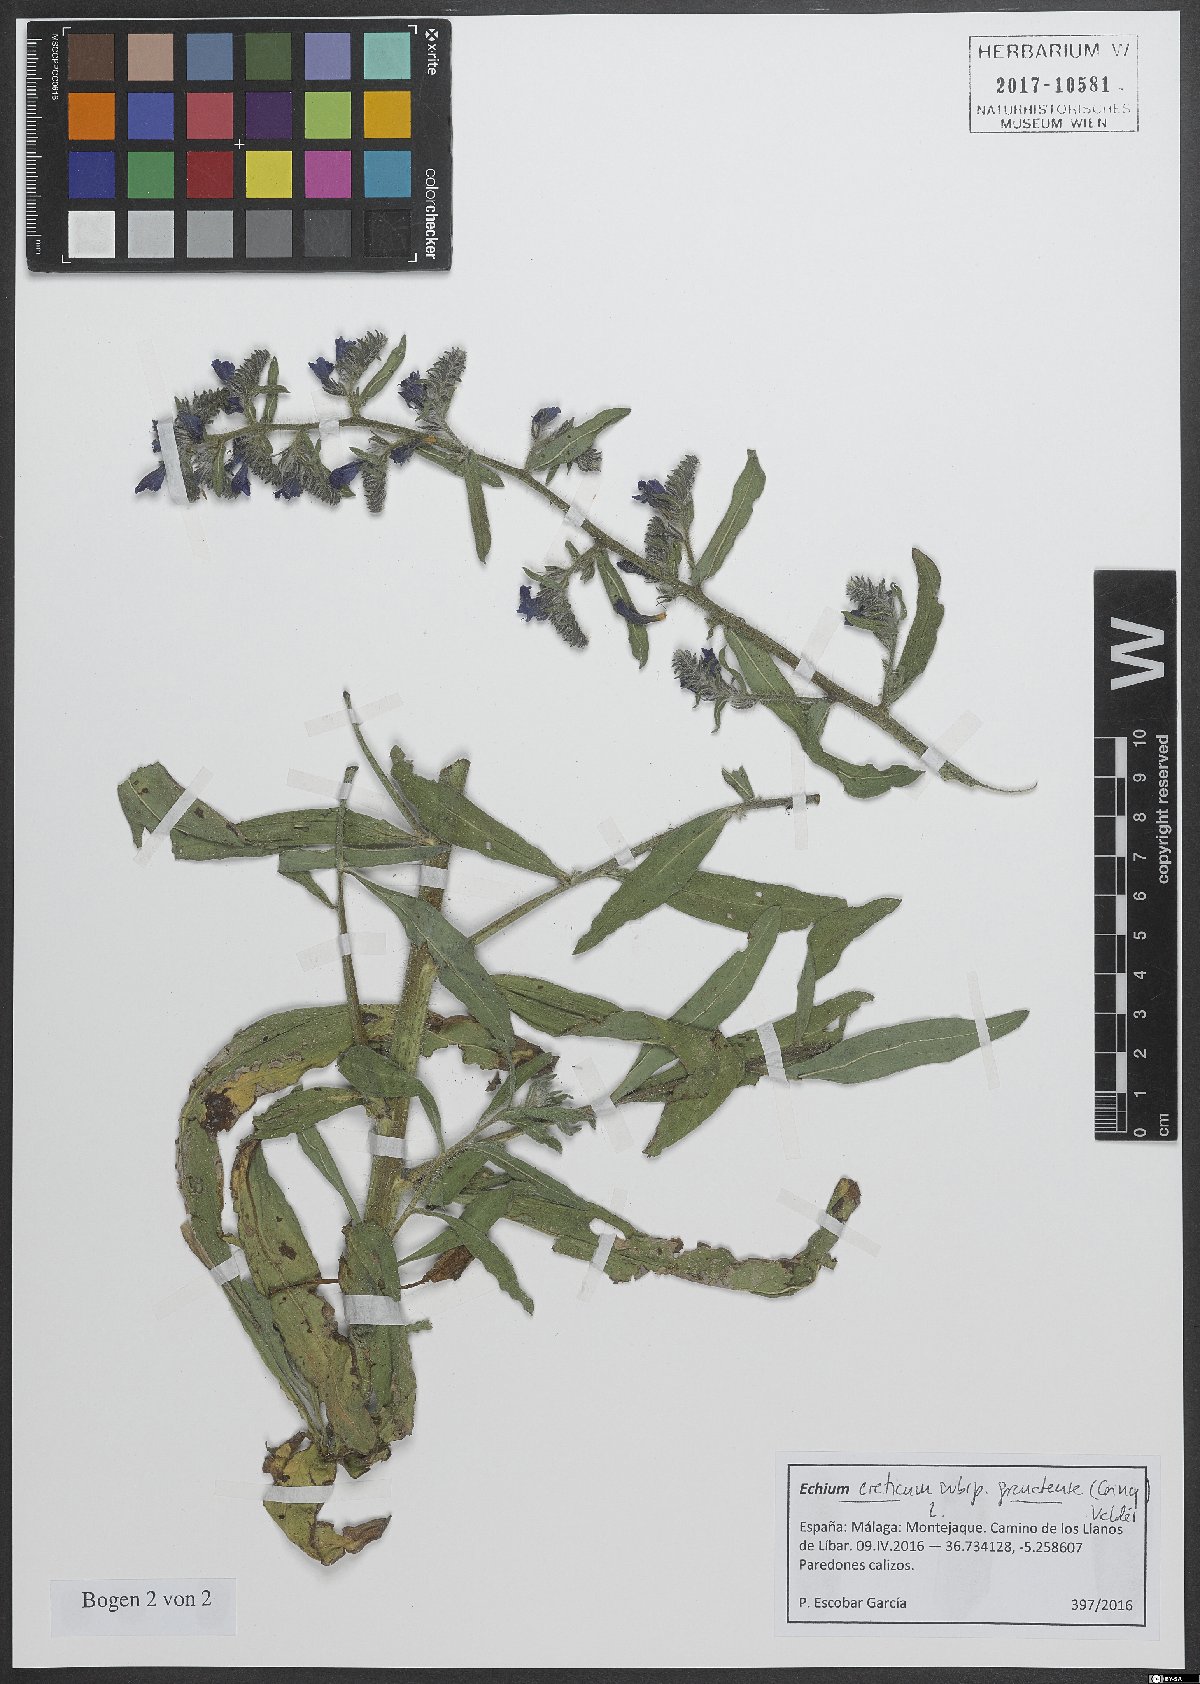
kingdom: Plantae
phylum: Tracheophyta
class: Magnoliopsida
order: Boraginales
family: Boraginaceae
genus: Echium
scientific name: Echium creticum
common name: Cretan viper's bugloss
